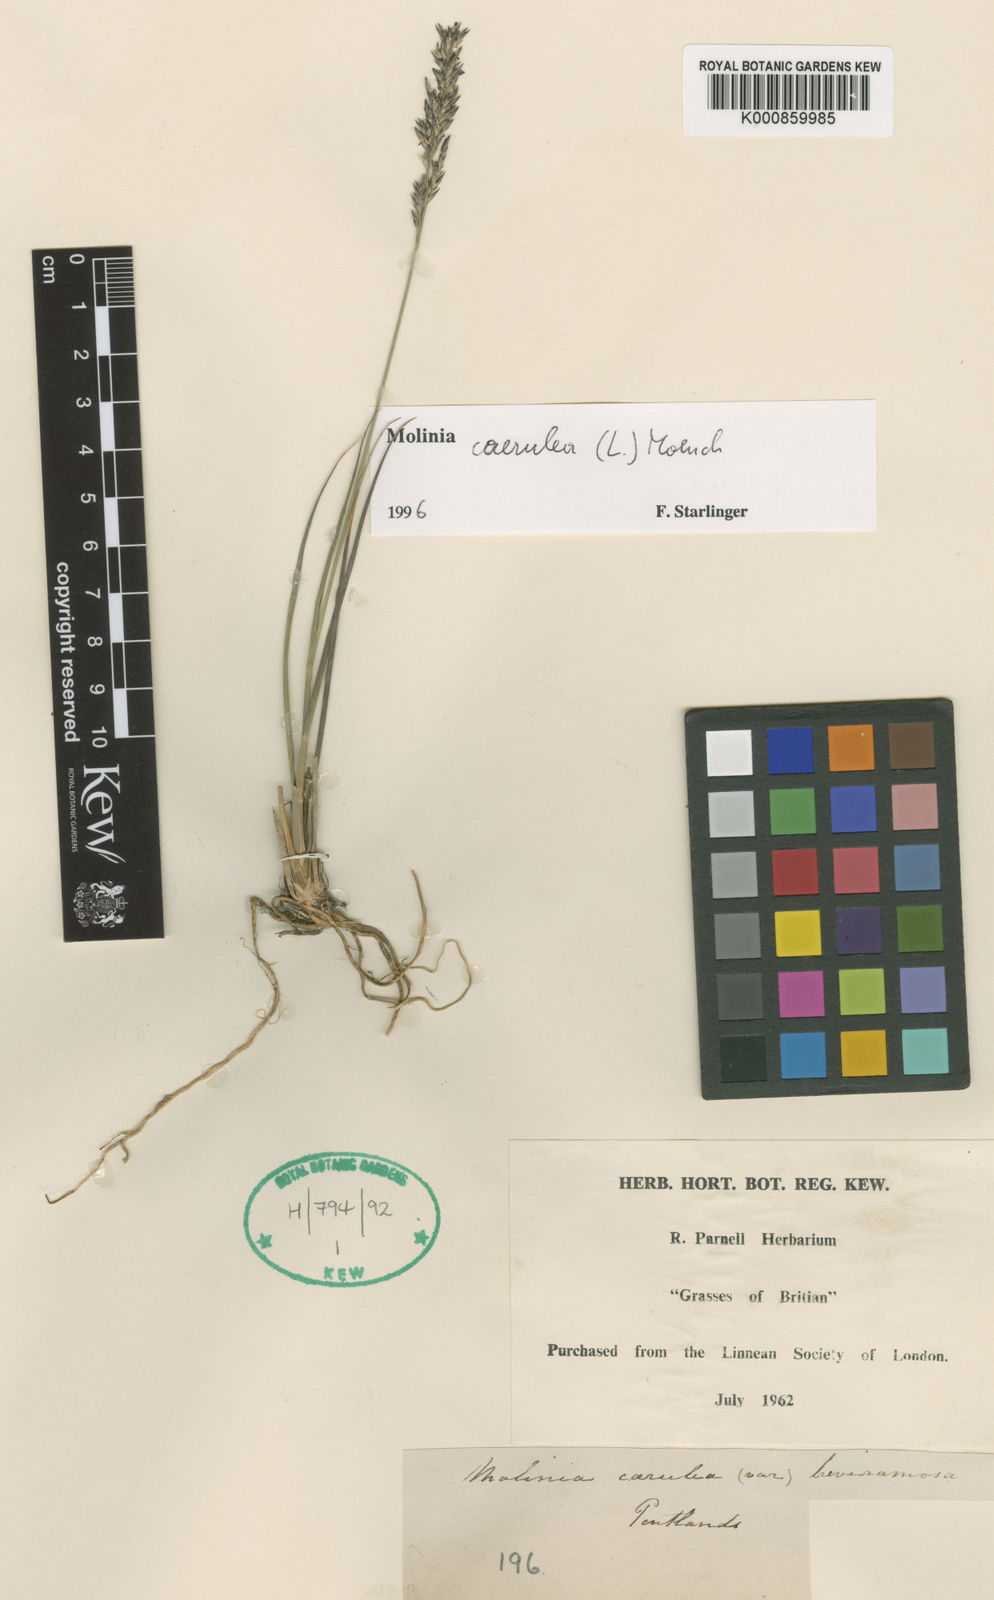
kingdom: Plantae
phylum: Tracheophyta
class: Liliopsida
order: Poales
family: Poaceae
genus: Molinia
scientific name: Molinia caerulea
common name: Purple moor-grass
